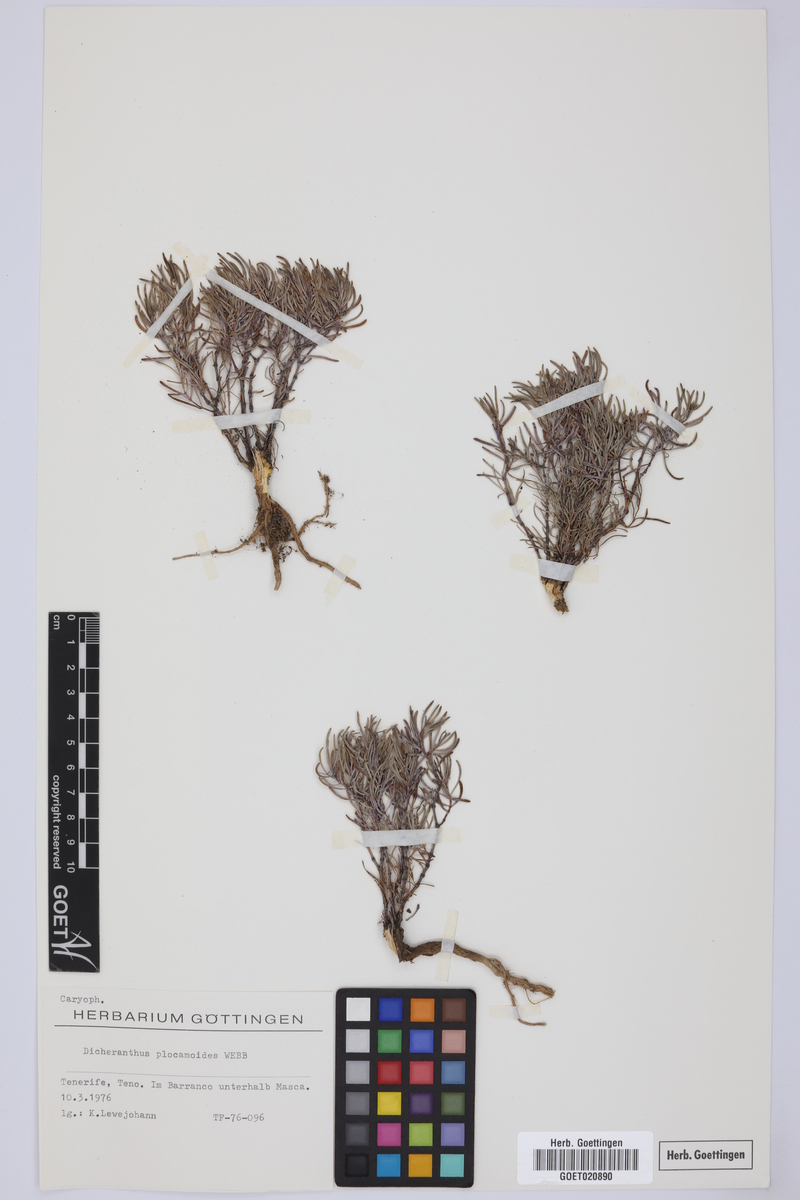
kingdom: Plantae
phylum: Tracheophyta
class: Magnoliopsida
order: Caryophyllales
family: Caryophyllaceae
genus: Dicheranthus
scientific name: Dicheranthus plocamoides
